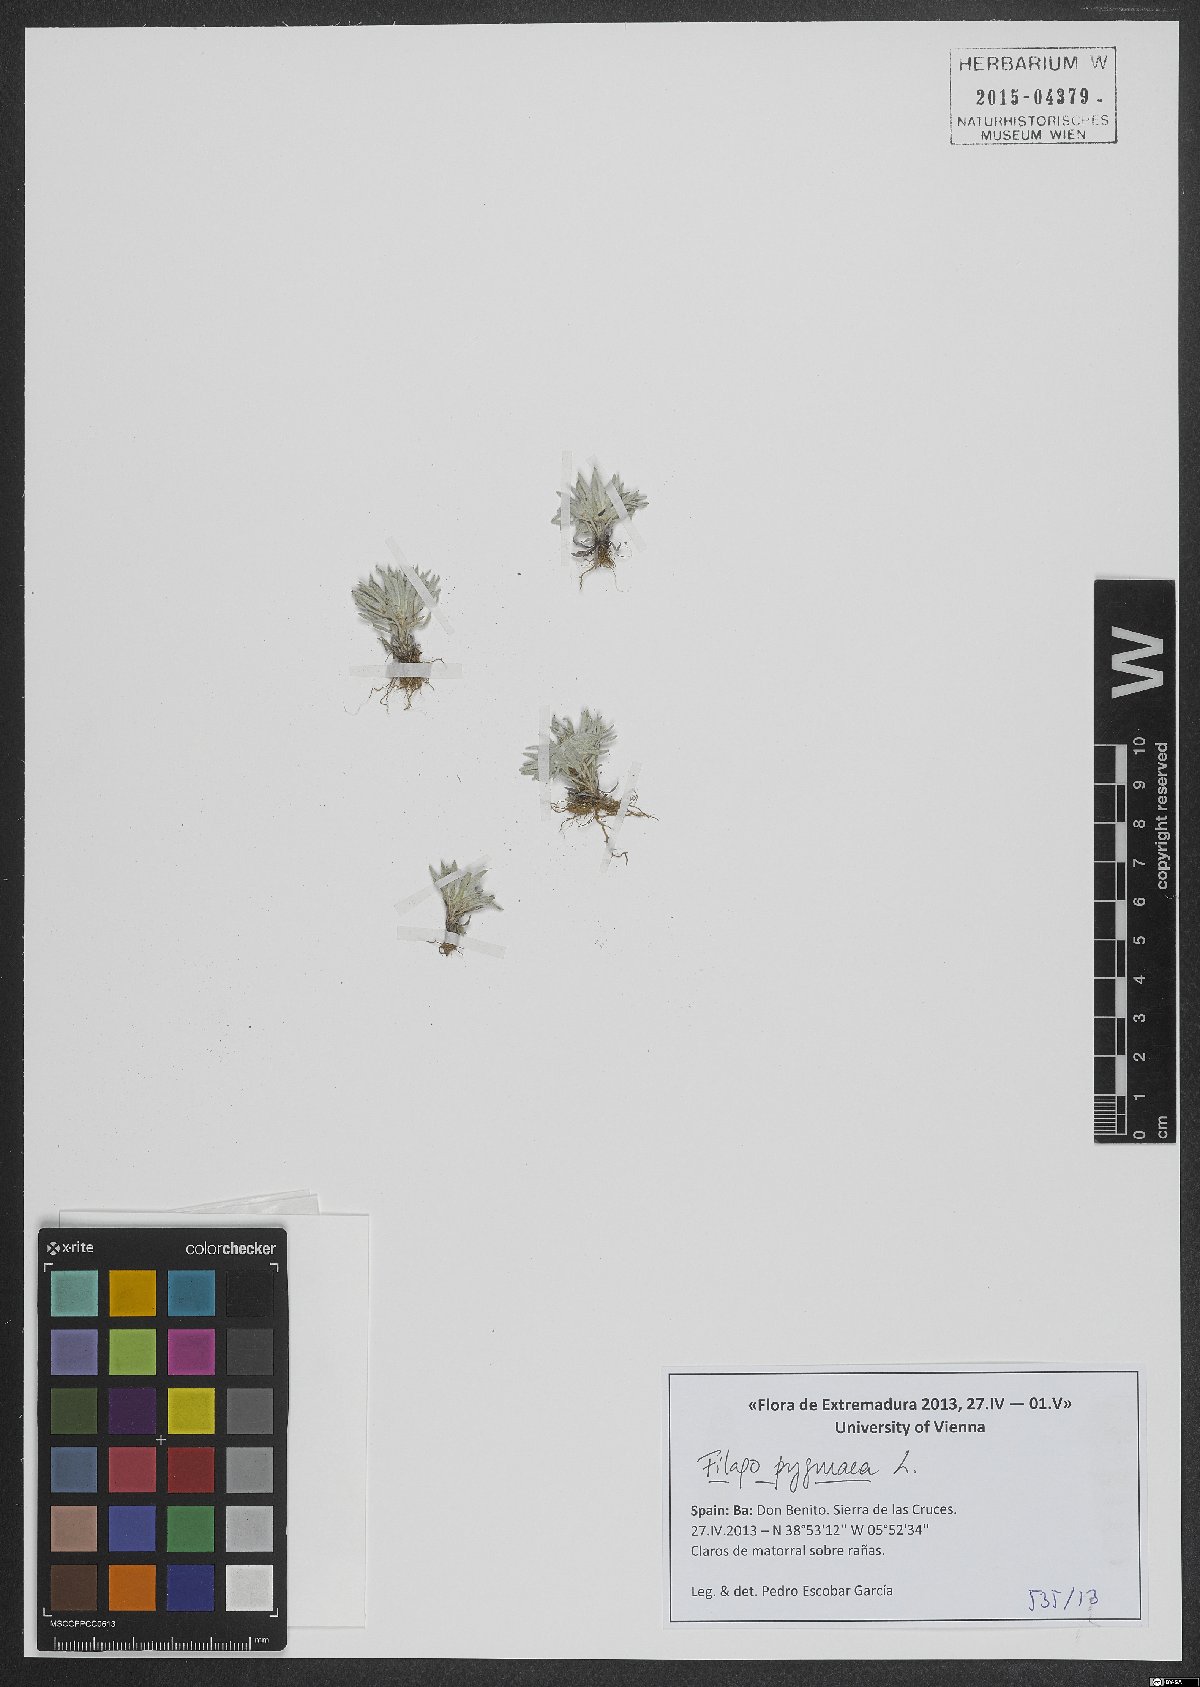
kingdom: Plantae
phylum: Tracheophyta
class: Magnoliopsida
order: Asterales
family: Asteraceae
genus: Filago
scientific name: Filago pygmaea
